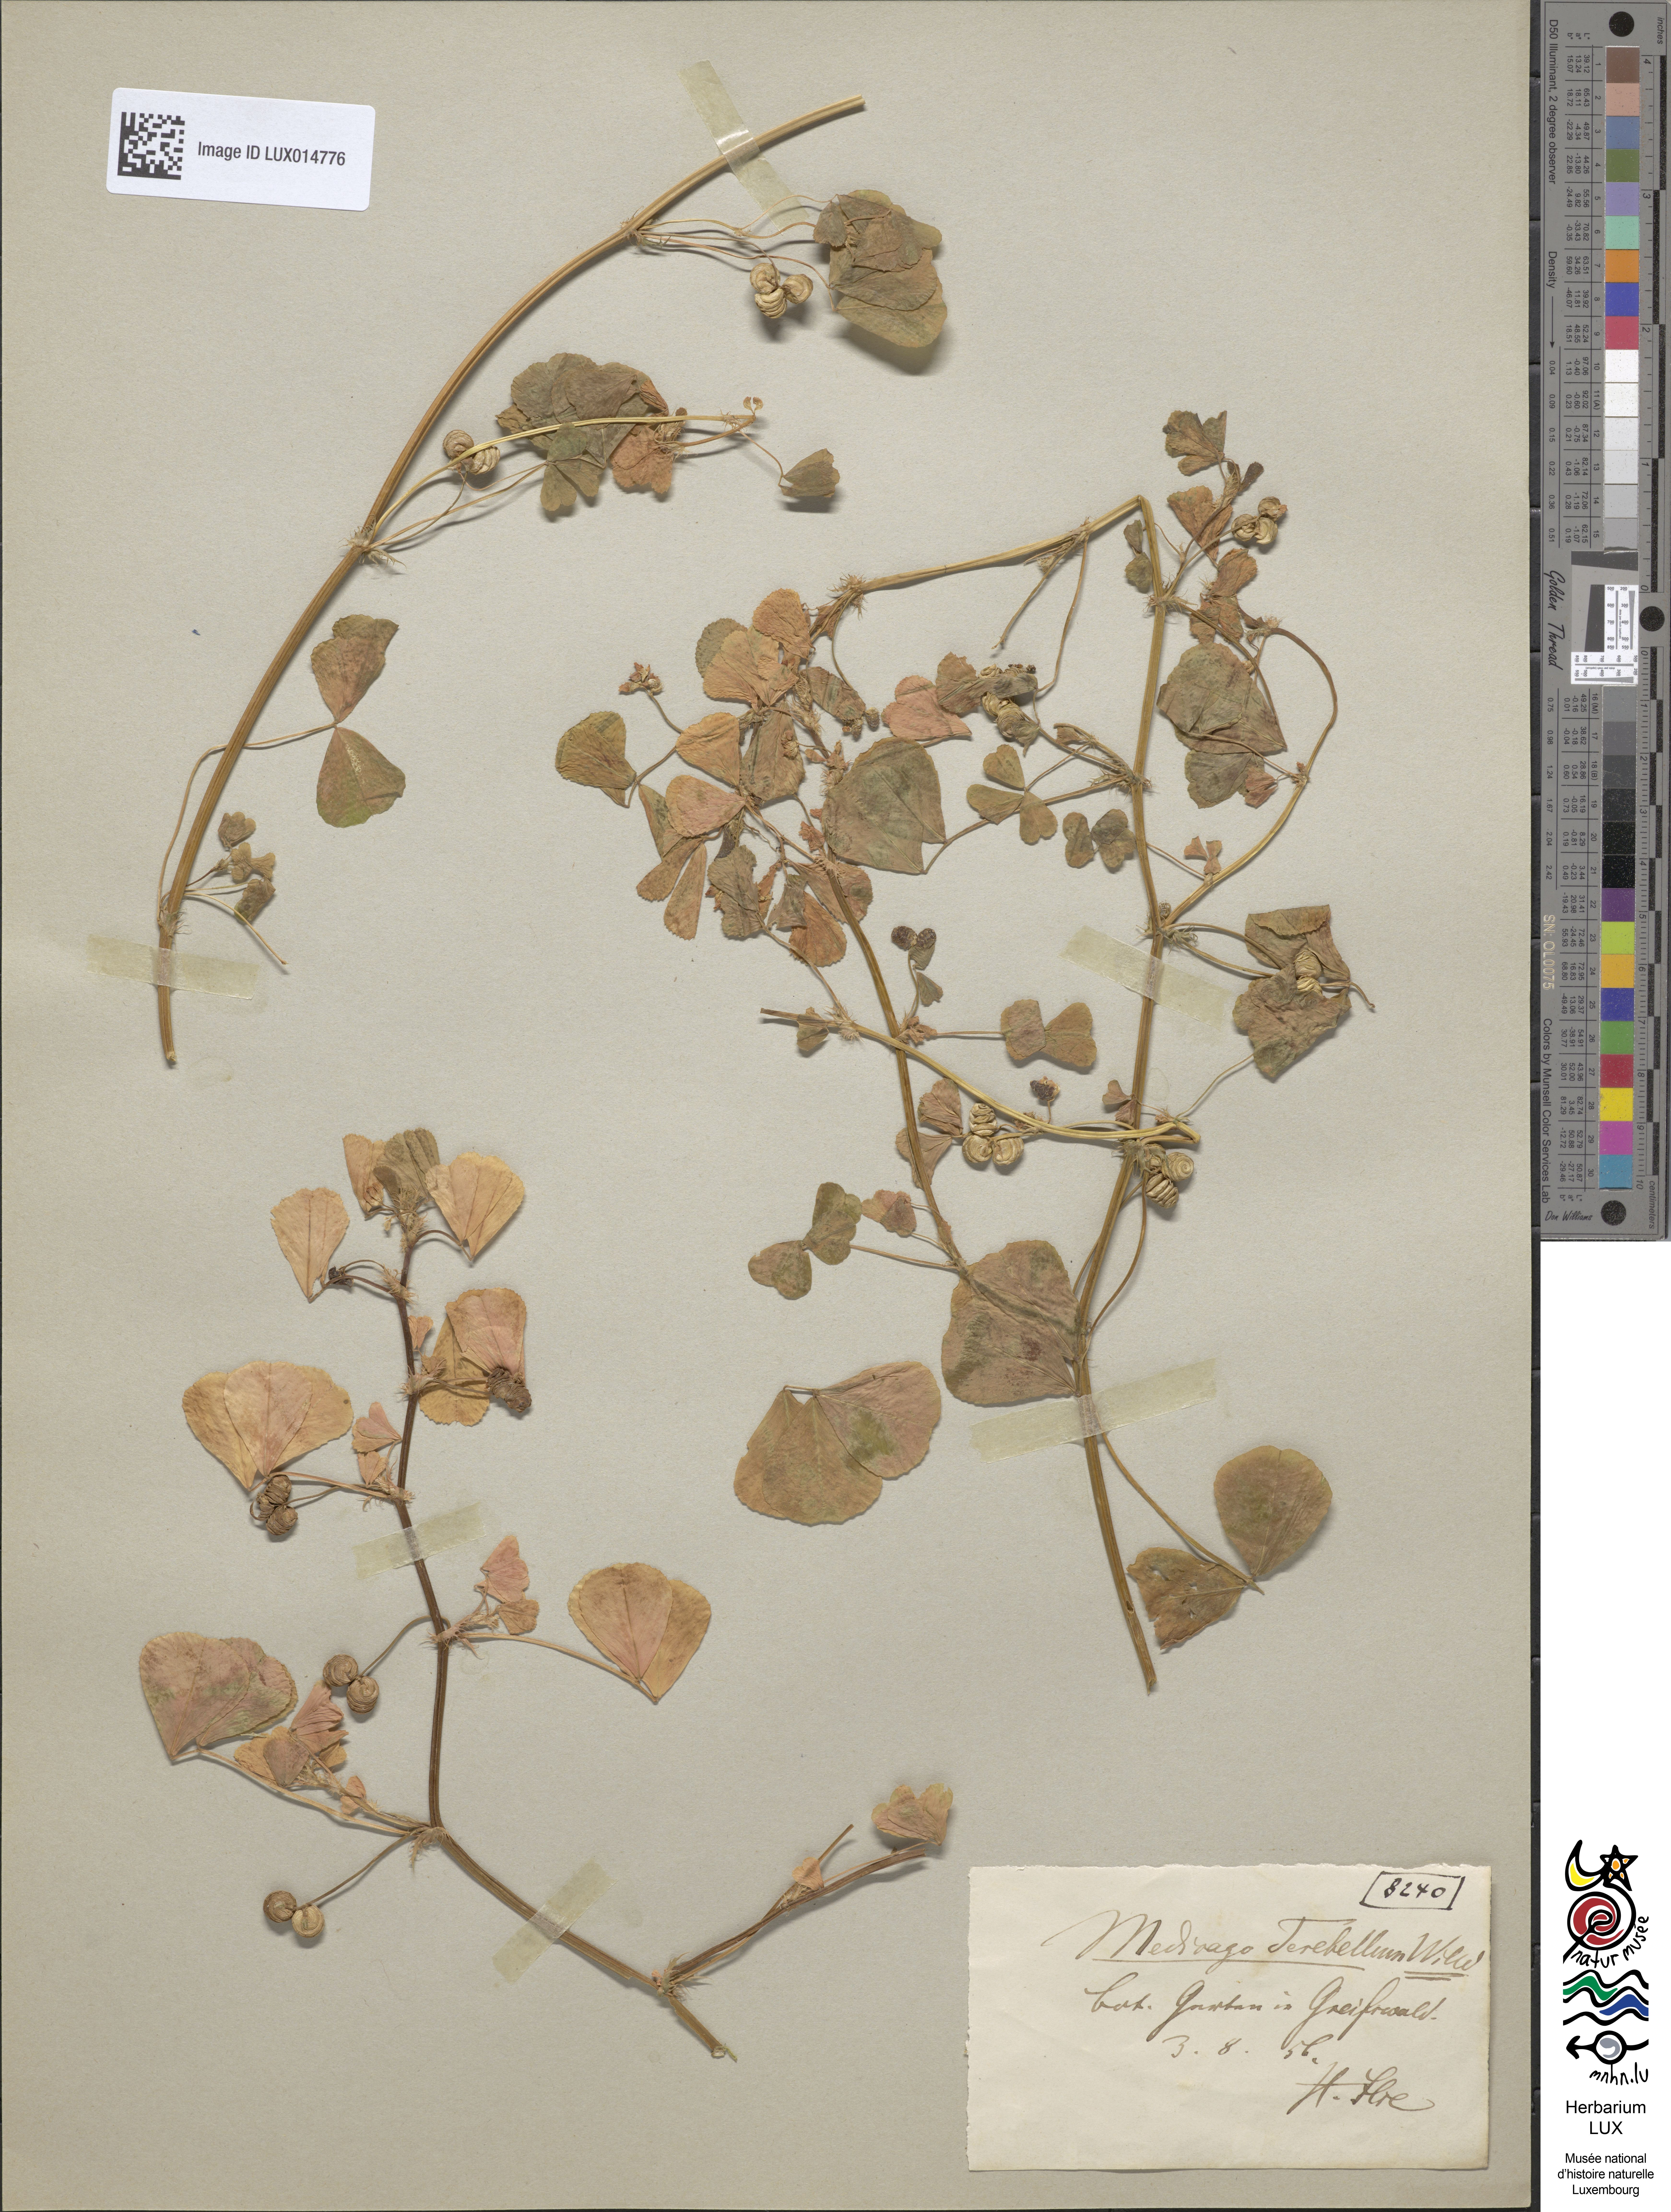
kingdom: Plantae
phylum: Tracheophyta
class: Magnoliopsida
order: Fabales
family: Fabaceae
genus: Medicago
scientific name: Medicago polymorpha
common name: Burclover
